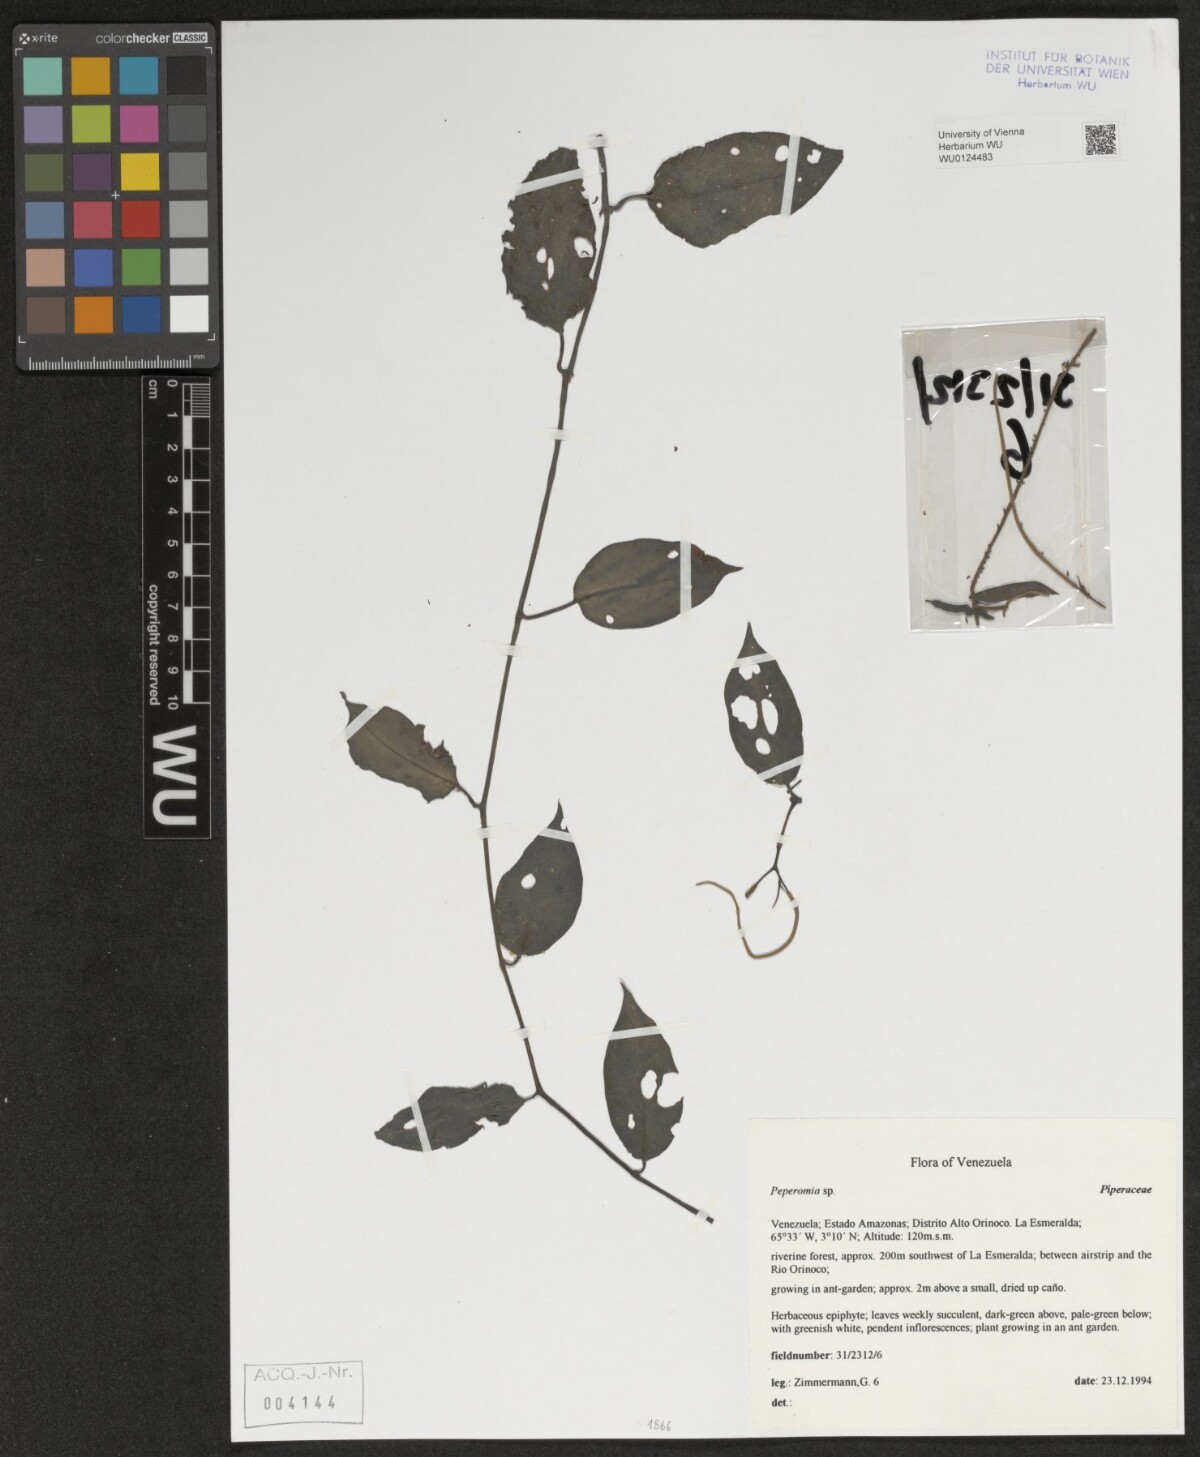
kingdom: Plantae
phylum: Tracheophyta
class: Magnoliopsida
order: Piperales
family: Piperaceae
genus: Peperomia
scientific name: Peperomia
